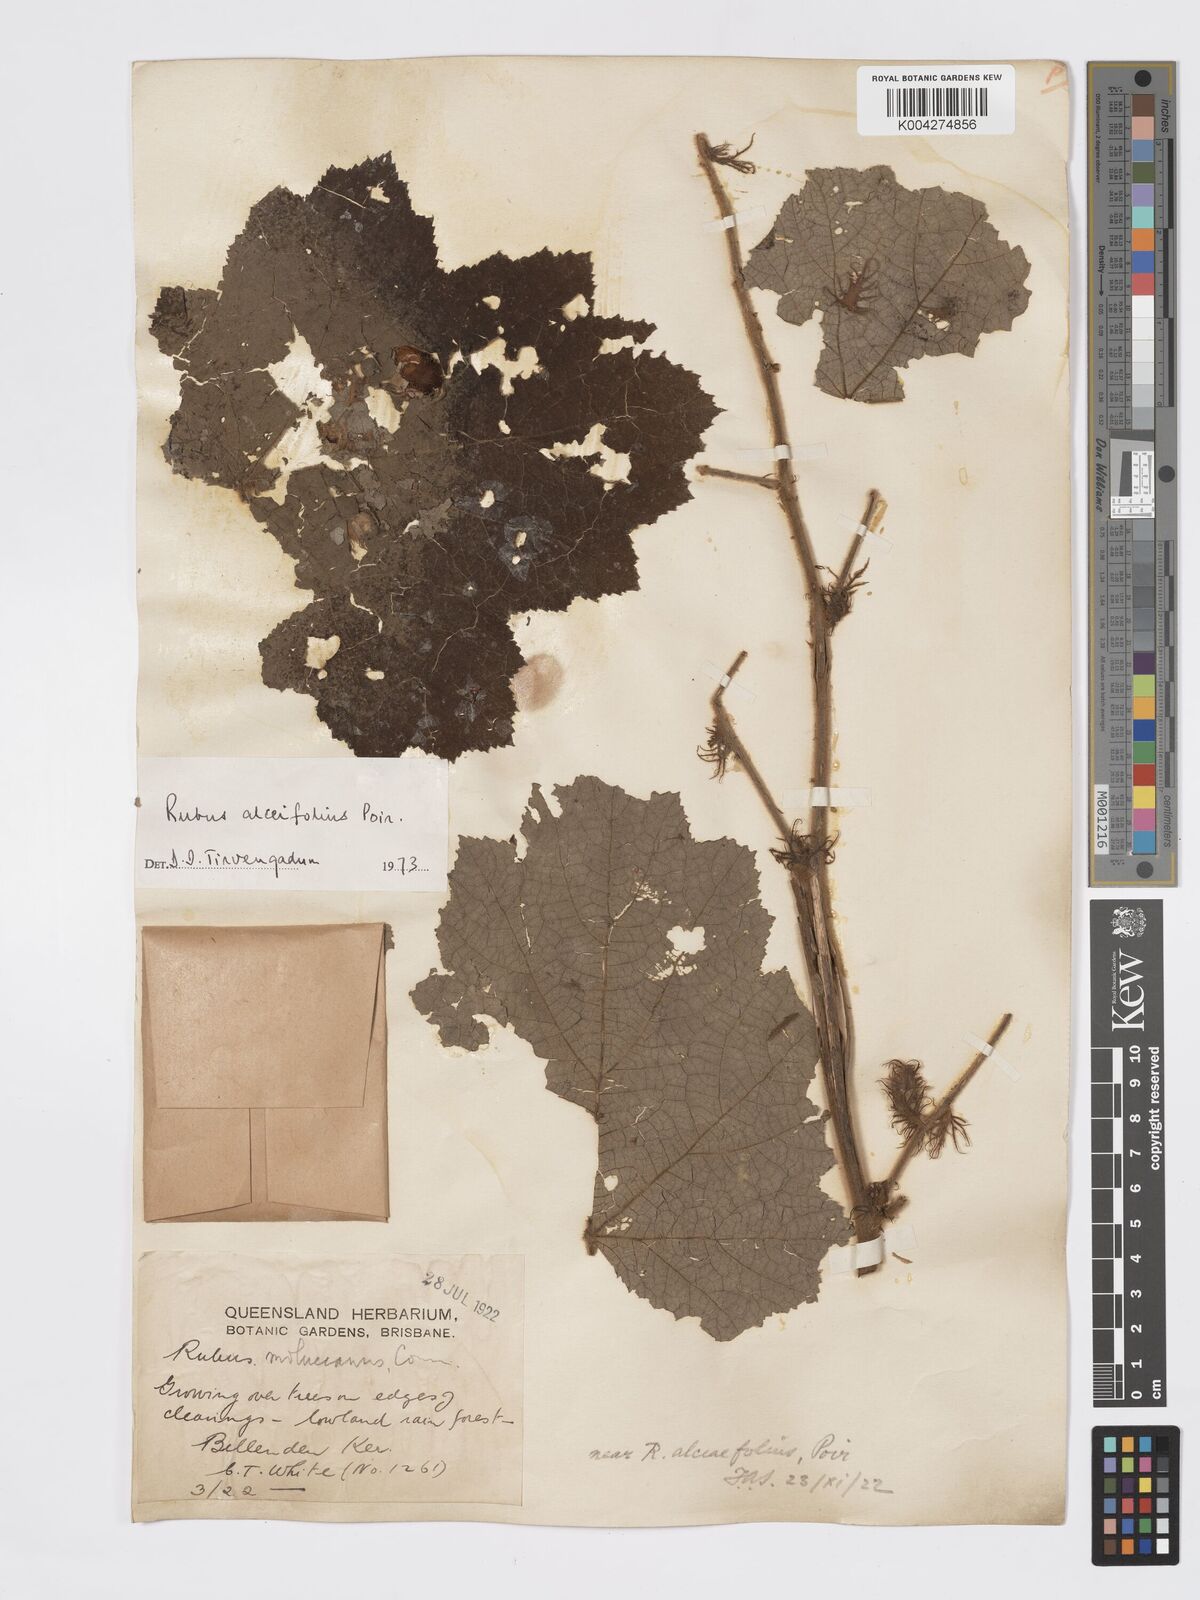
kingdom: Plantae
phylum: Tracheophyta
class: Magnoliopsida
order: Rosales
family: Rosaceae
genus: Rubus
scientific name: Rubus alceifolius
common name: Giant bramble
